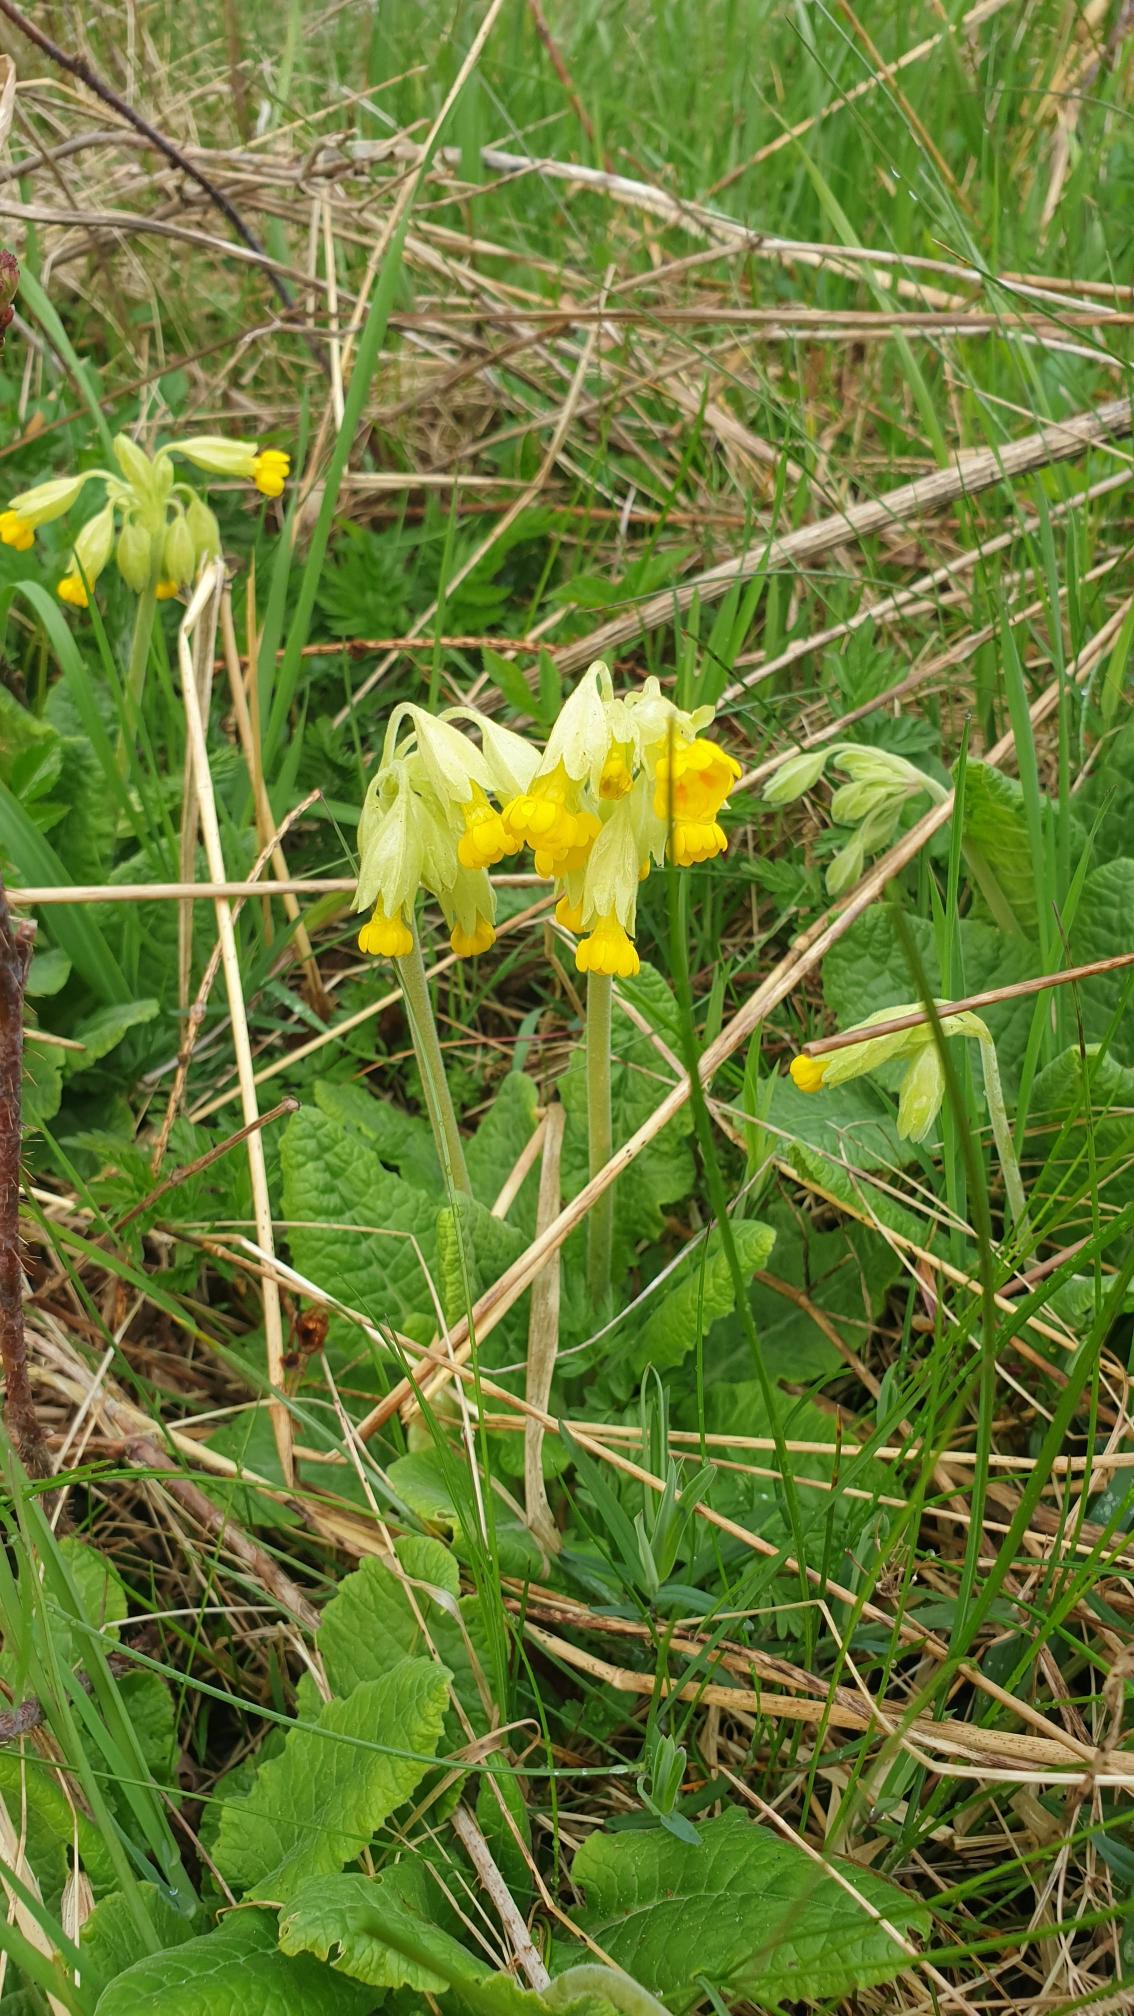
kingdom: Plantae
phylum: Tracheophyta
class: Magnoliopsida
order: Ericales
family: Primulaceae
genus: Primula
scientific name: Primula veris
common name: Hulkravet kodriver
